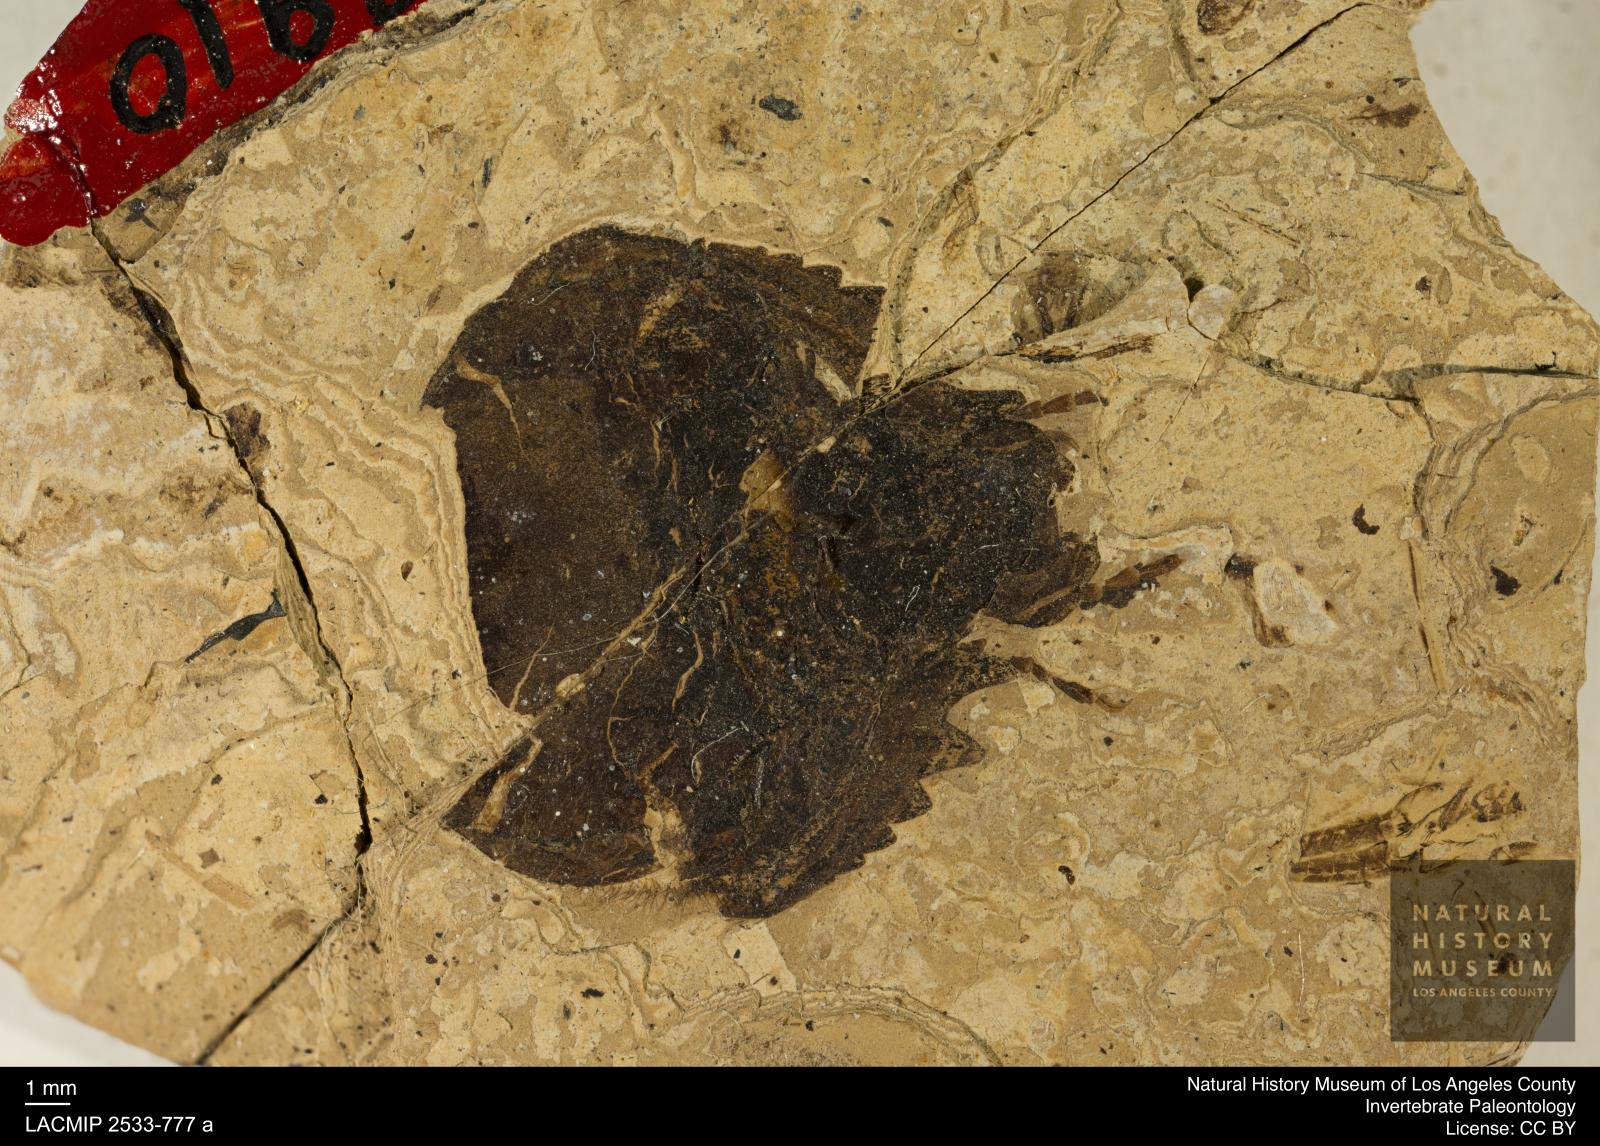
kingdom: Animalia
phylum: Arthropoda
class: Insecta
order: Coleoptera
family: Geotrupidae
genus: Geotrupes
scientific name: Geotrupes rottensis
